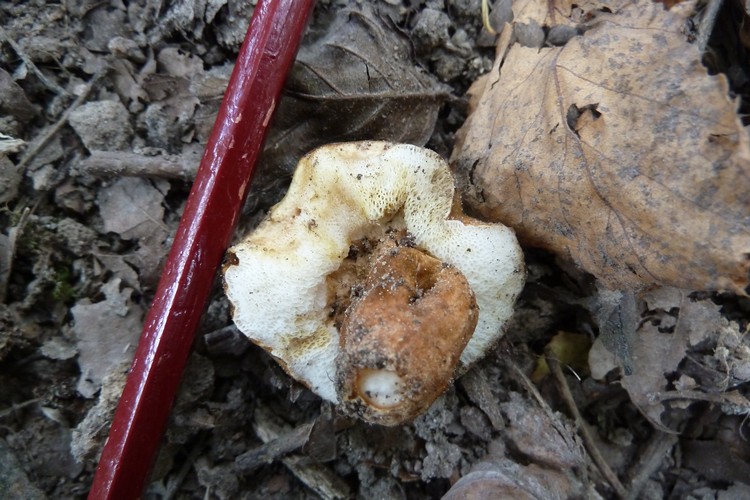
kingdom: Fungi
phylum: Basidiomycota
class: Agaricomycetes
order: Boletales
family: Gyroporaceae
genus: Gyroporus
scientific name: Gyroporus castaneus
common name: kastanie-kammerrørhat
